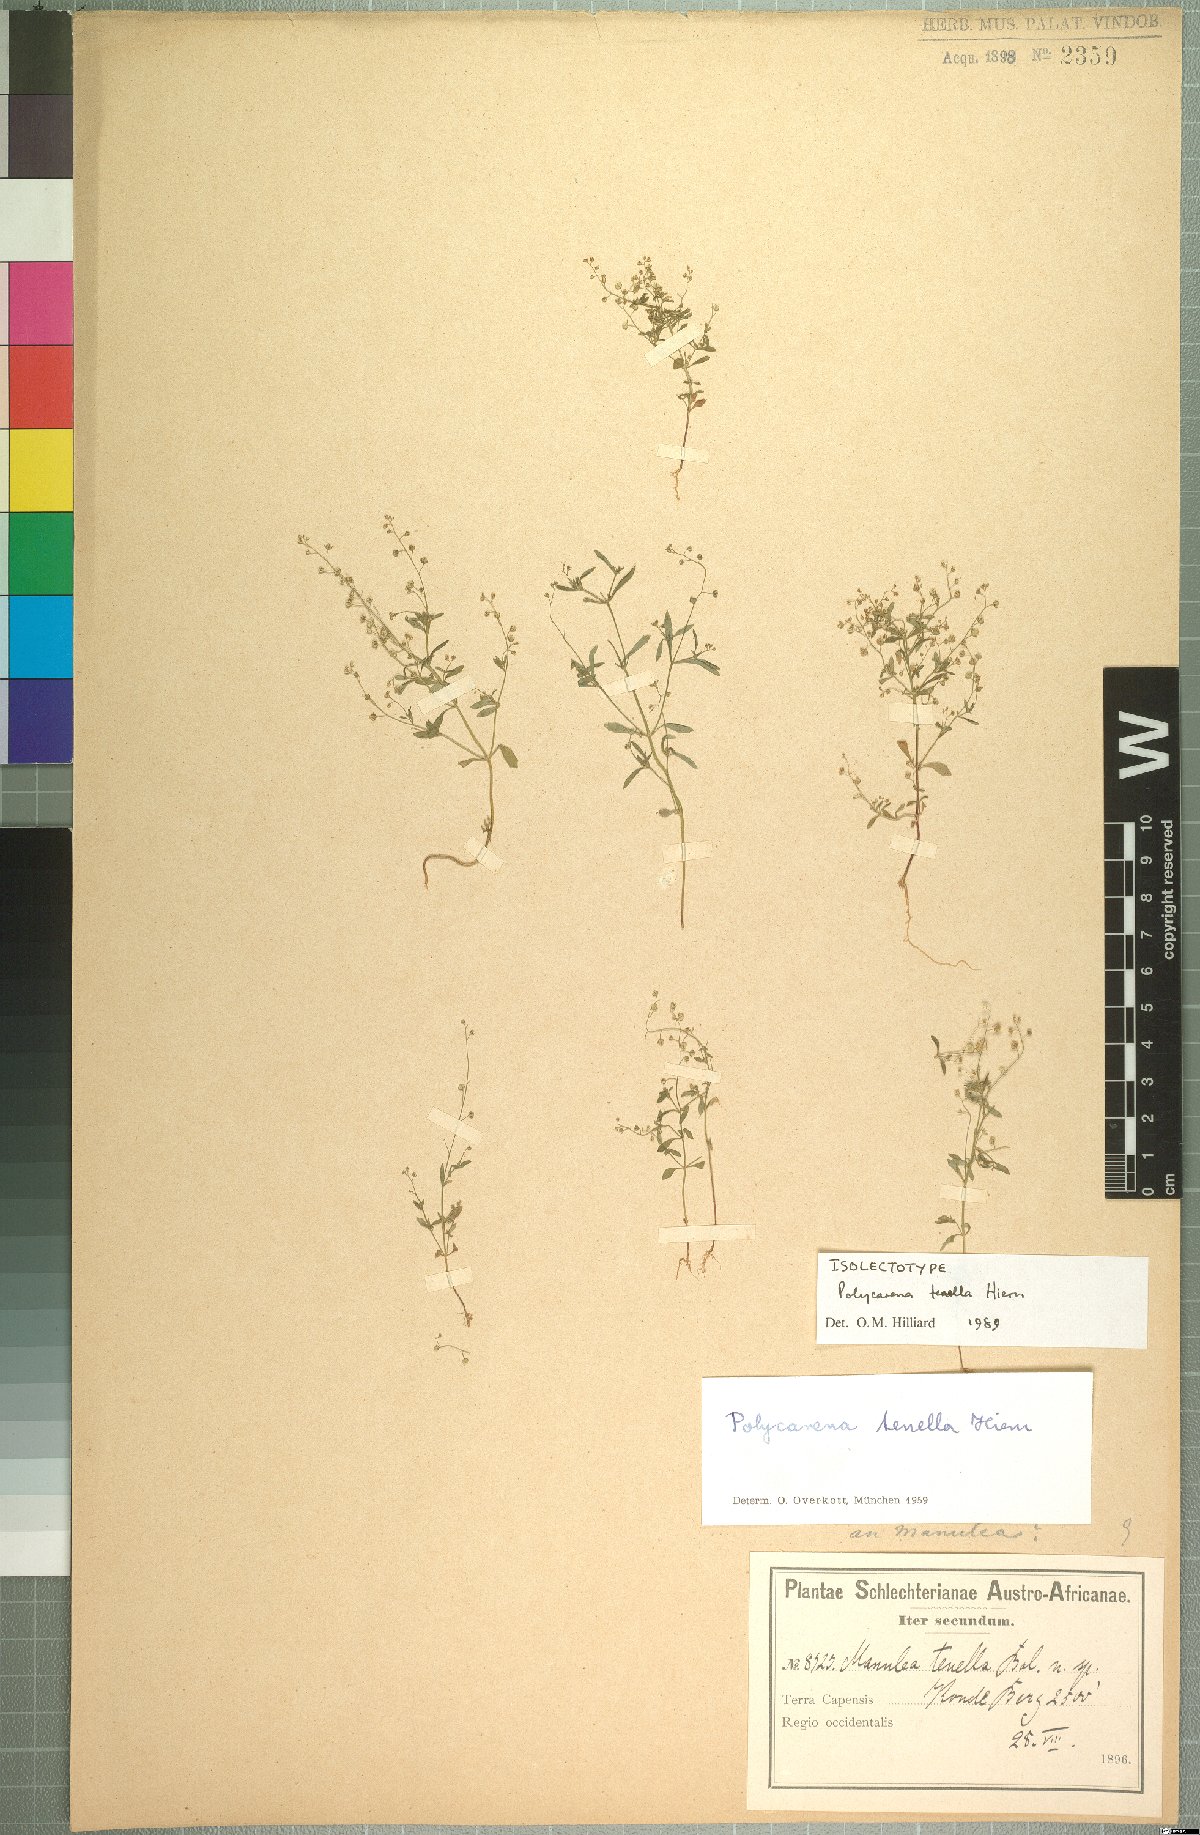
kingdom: Plantae
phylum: Tracheophyta
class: Magnoliopsida
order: Lamiales
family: Scrophulariaceae
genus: Polycarena
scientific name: Polycarena tenella
